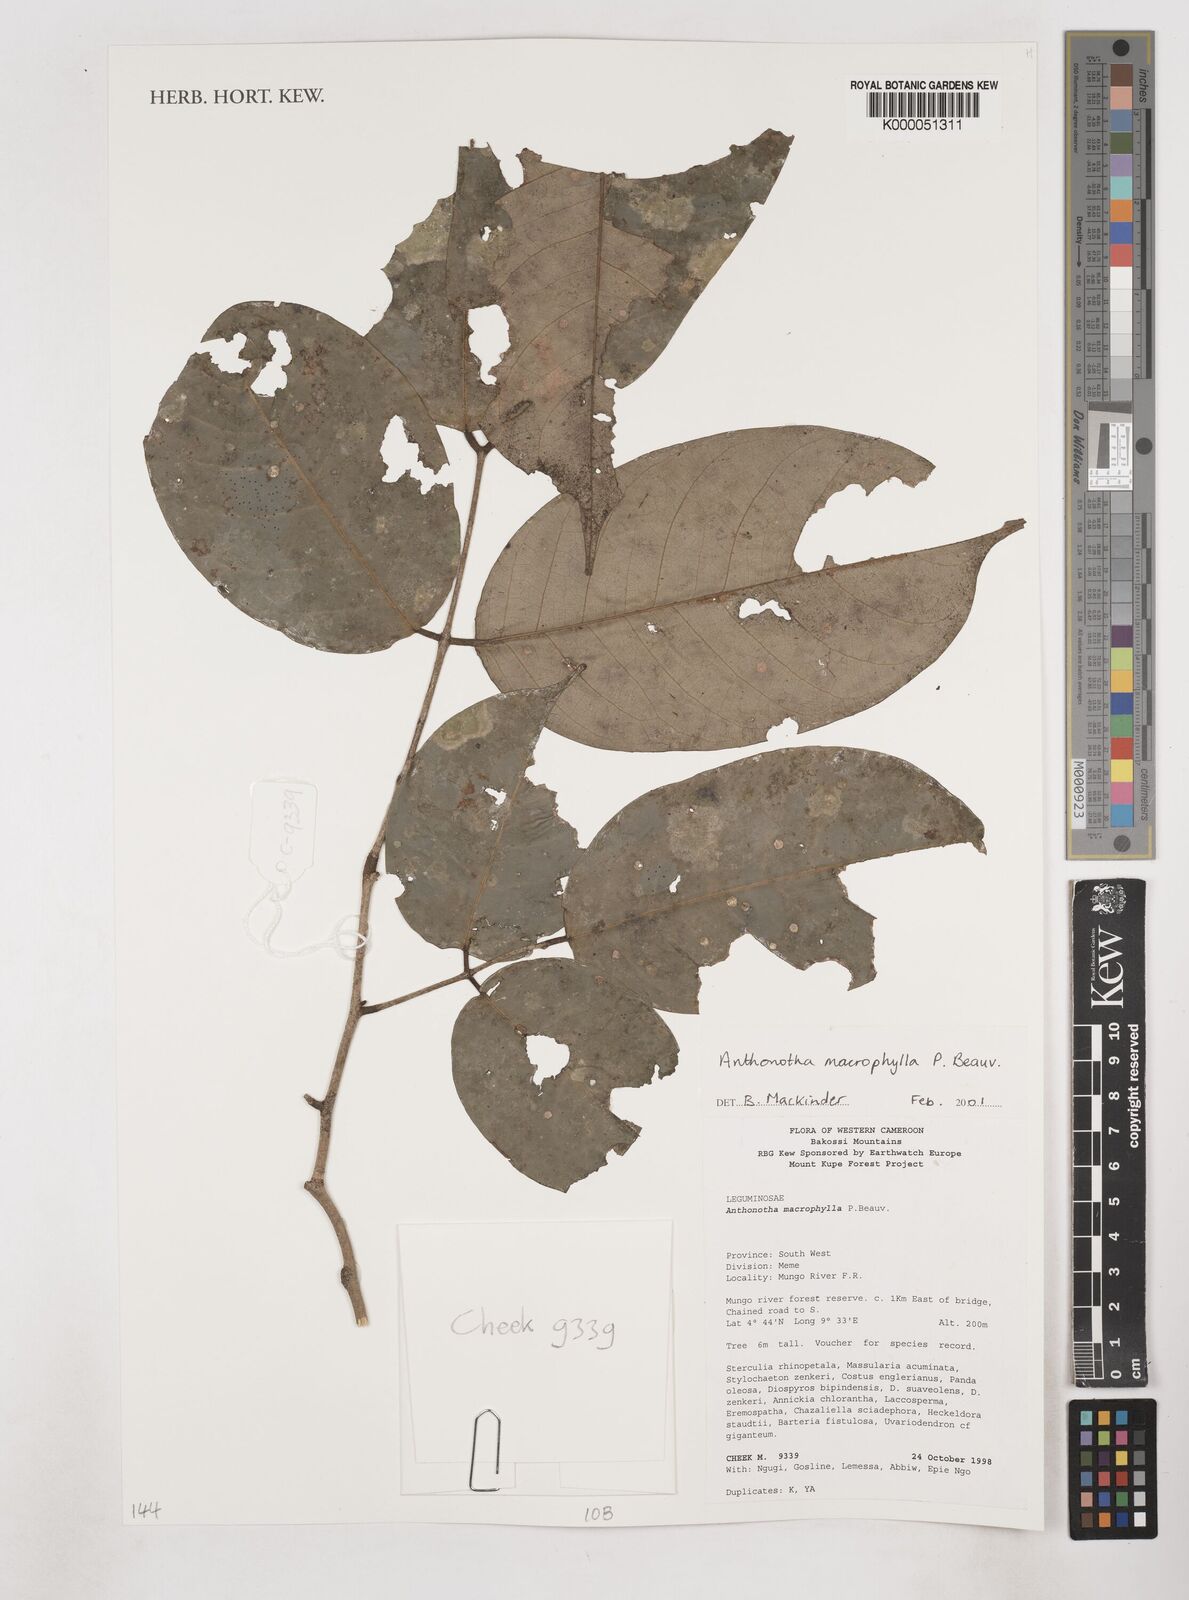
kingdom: Plantae
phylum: Tracheophyta
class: Magnoliopsida
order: Fabales
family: Fabaceae
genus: Anthonotha
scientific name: Anthonotha macrophylla
